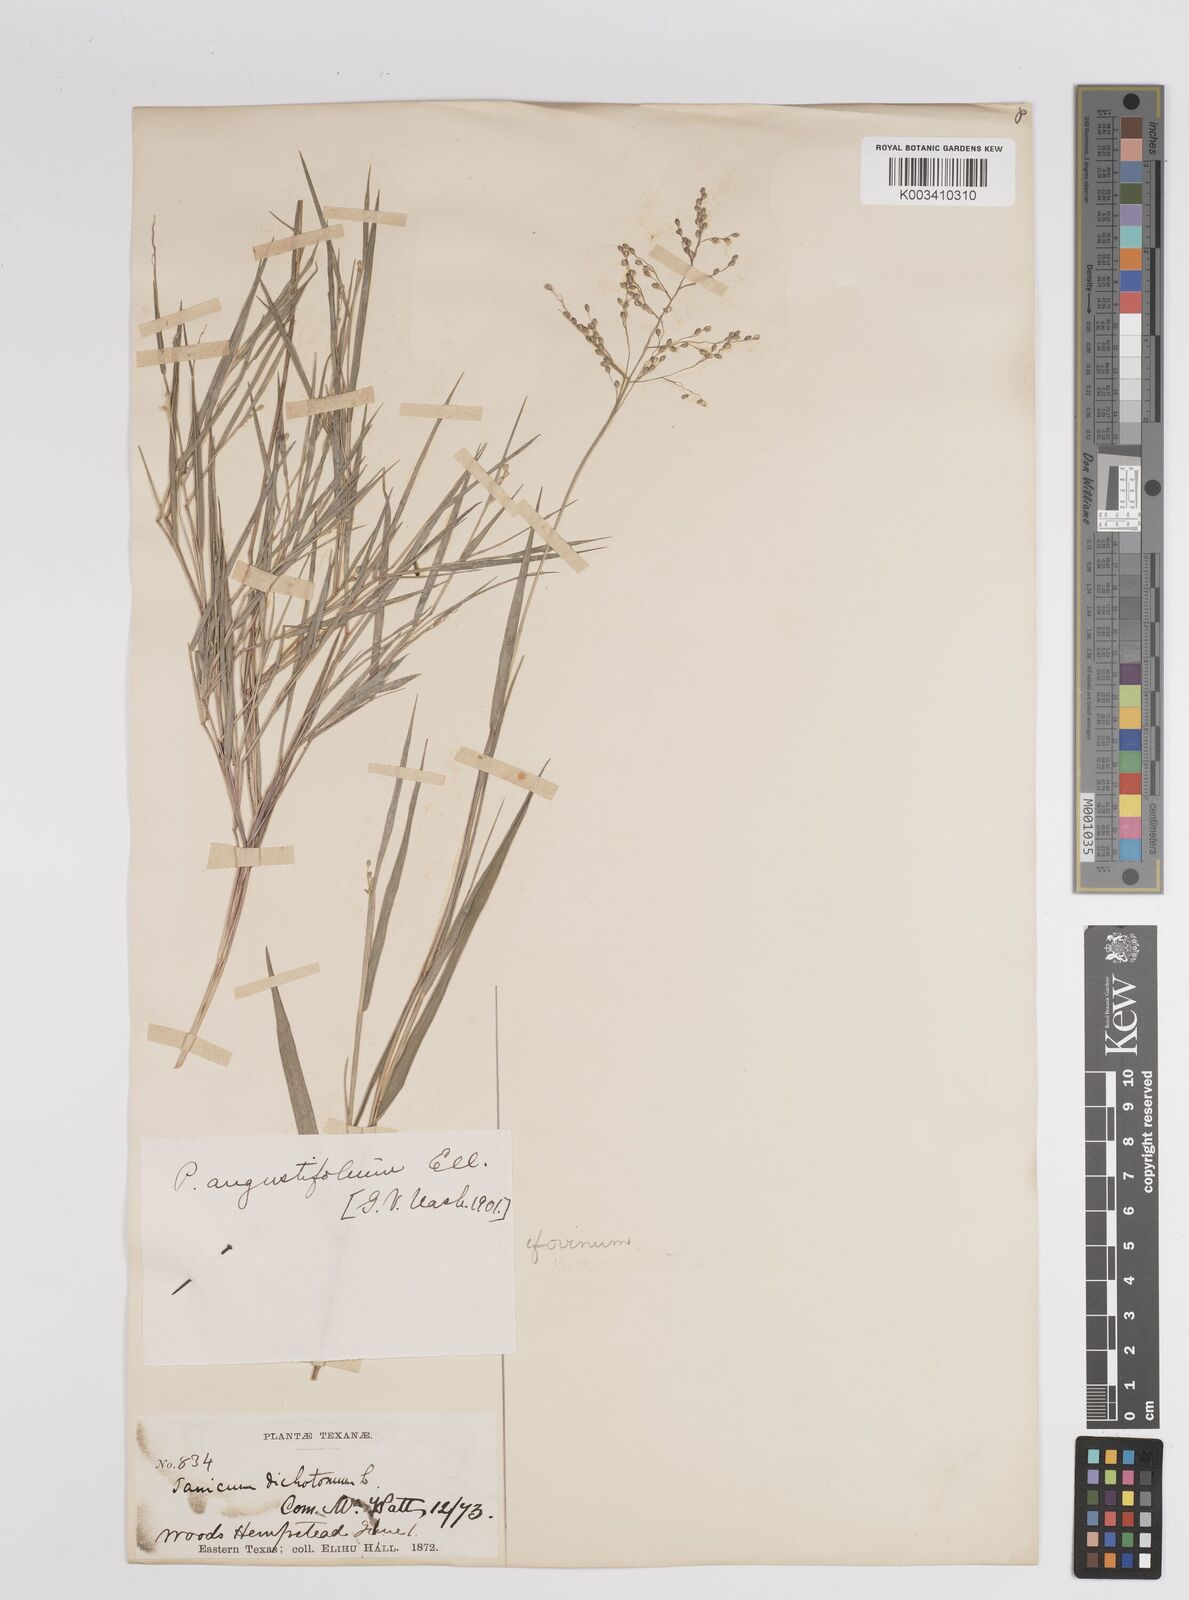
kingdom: Plantae
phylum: Tracheophyta
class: Liliopsida
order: Poales
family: Poaceae
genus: Dichanthelium
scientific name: Dichanthelium aciculare
